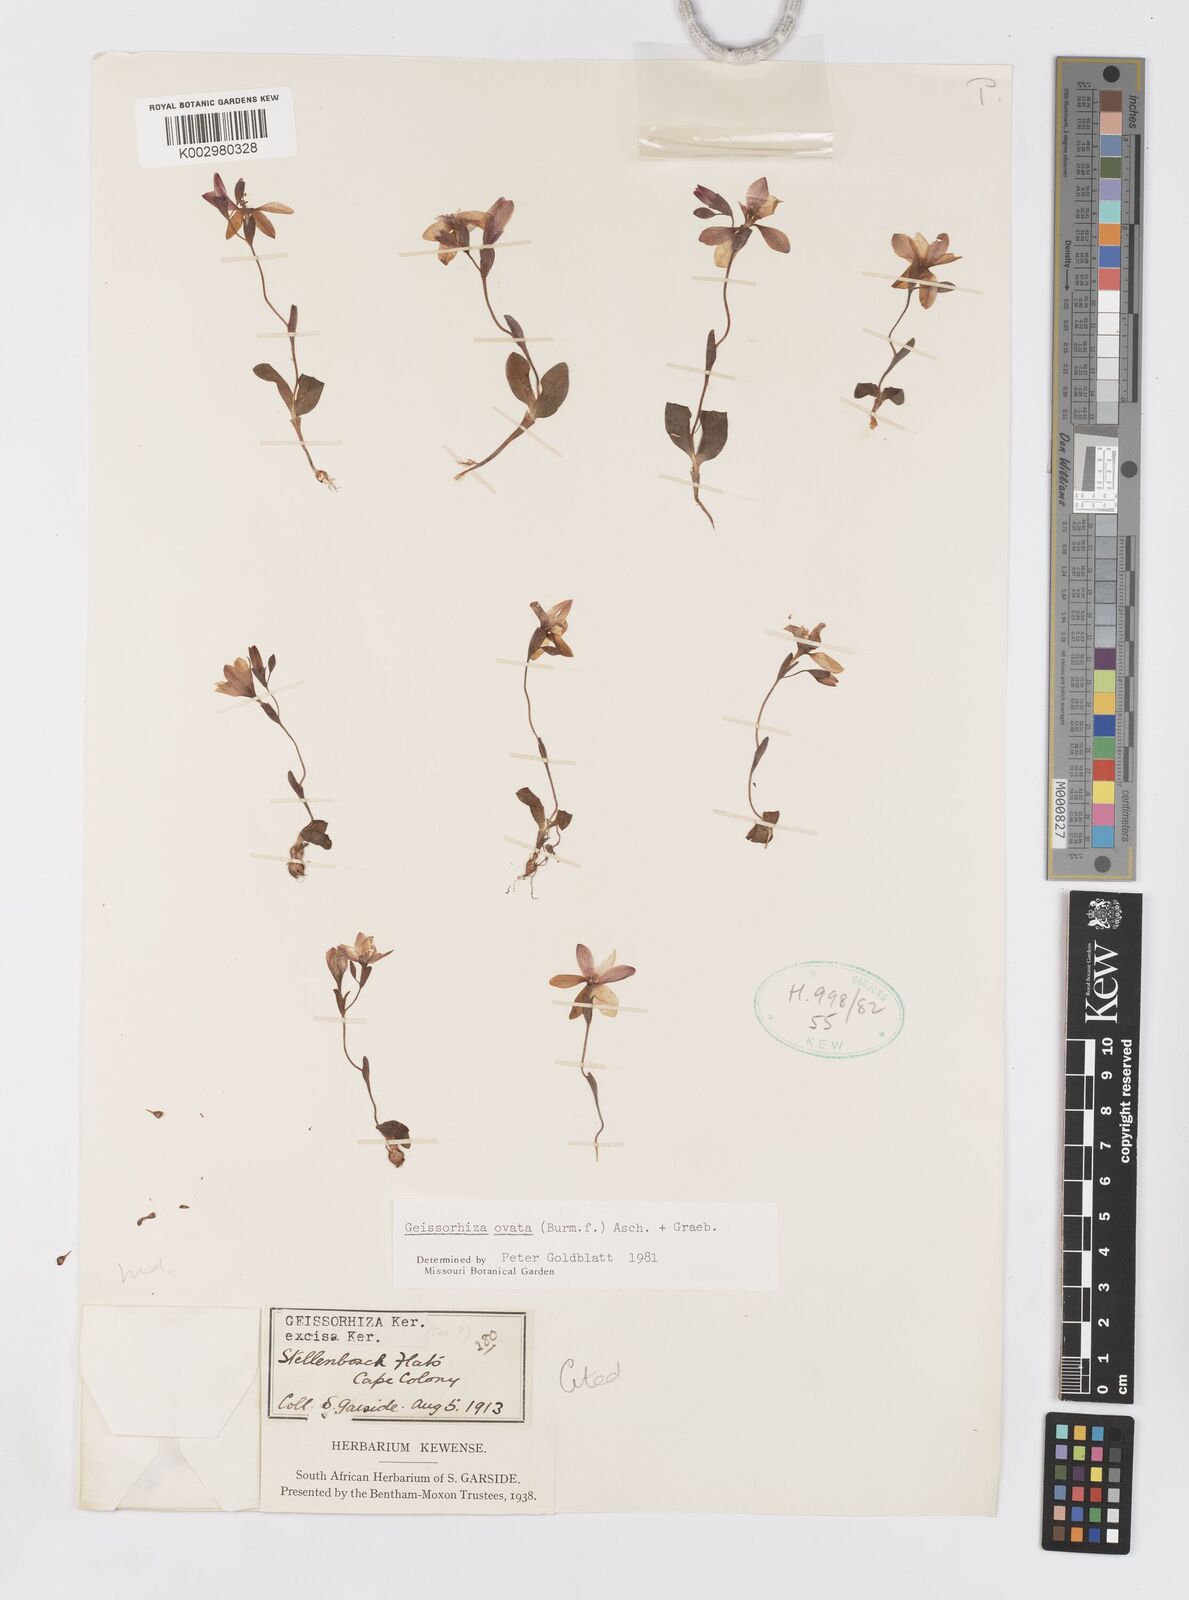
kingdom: Plantae
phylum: Tracheophyta
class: Liliopsida
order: Asparagales
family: Iridaceae
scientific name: Iridaceae
